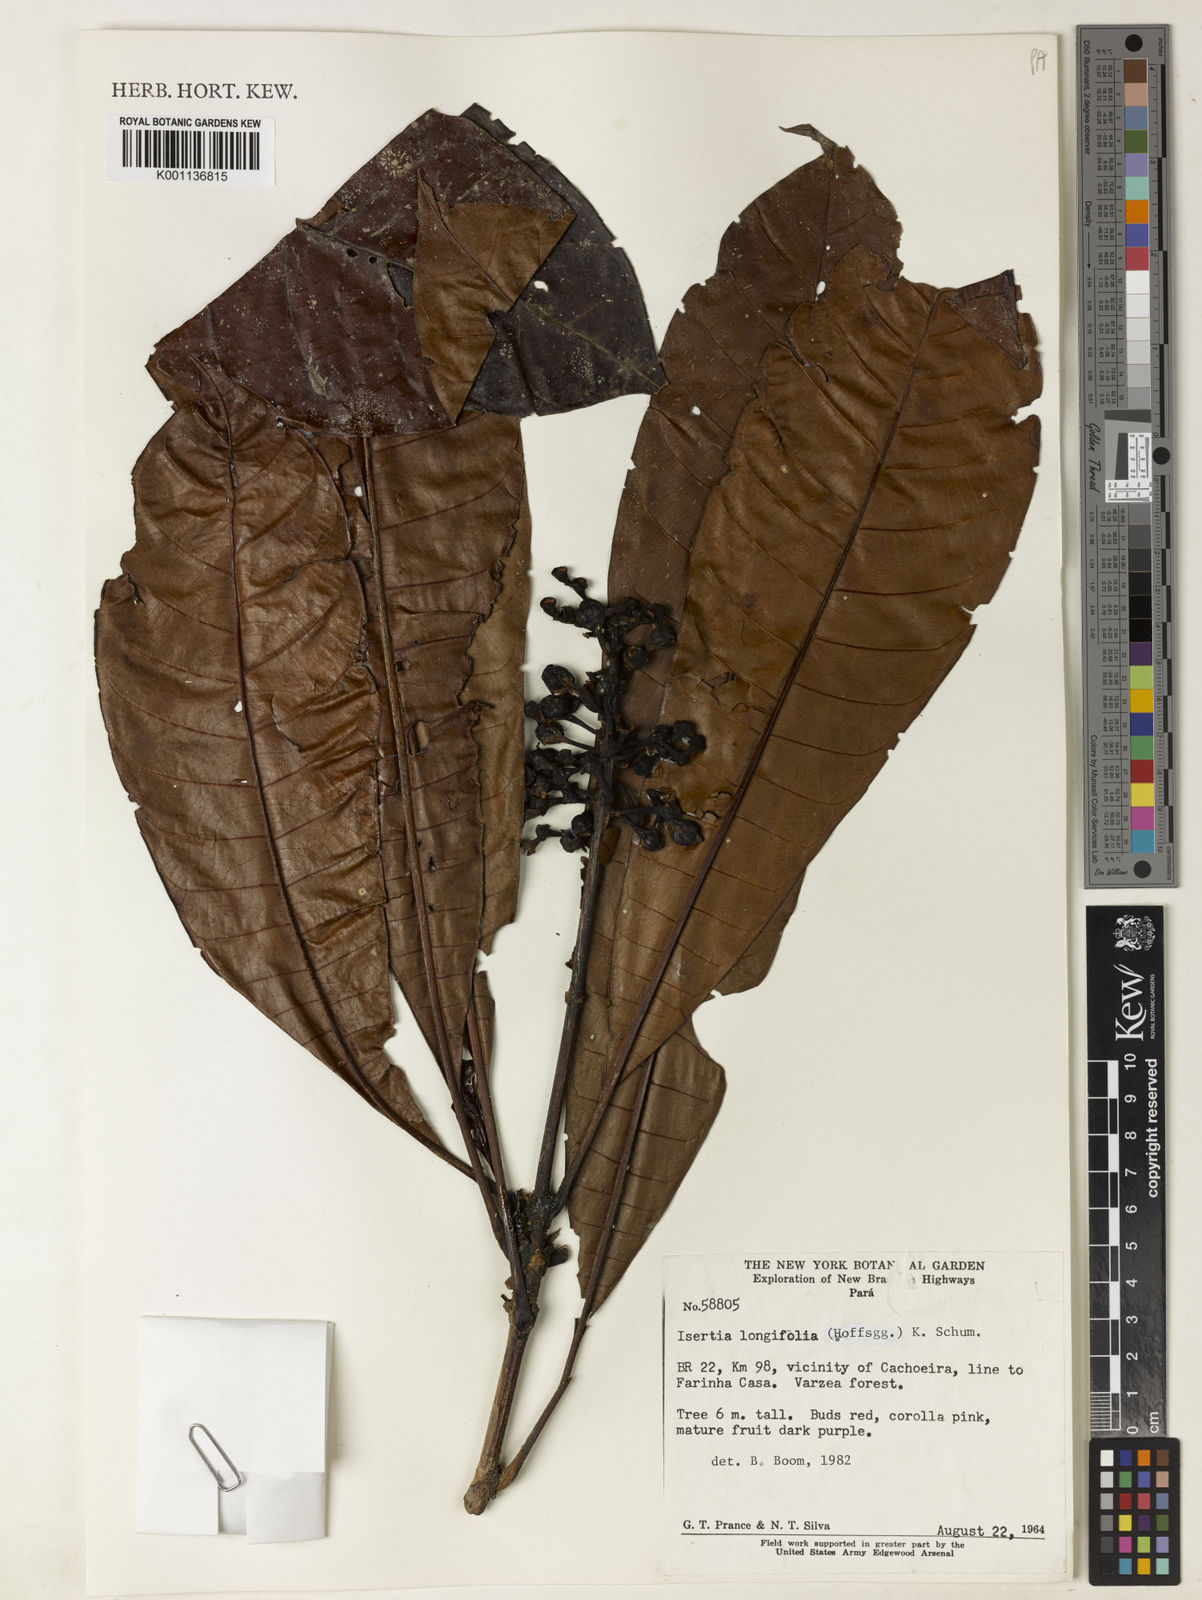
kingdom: Plantae
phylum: Tracheophyta
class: Magnoliopsida
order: Gentianales
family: Rubiaceae
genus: Isertia
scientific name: Isertia longifolia
